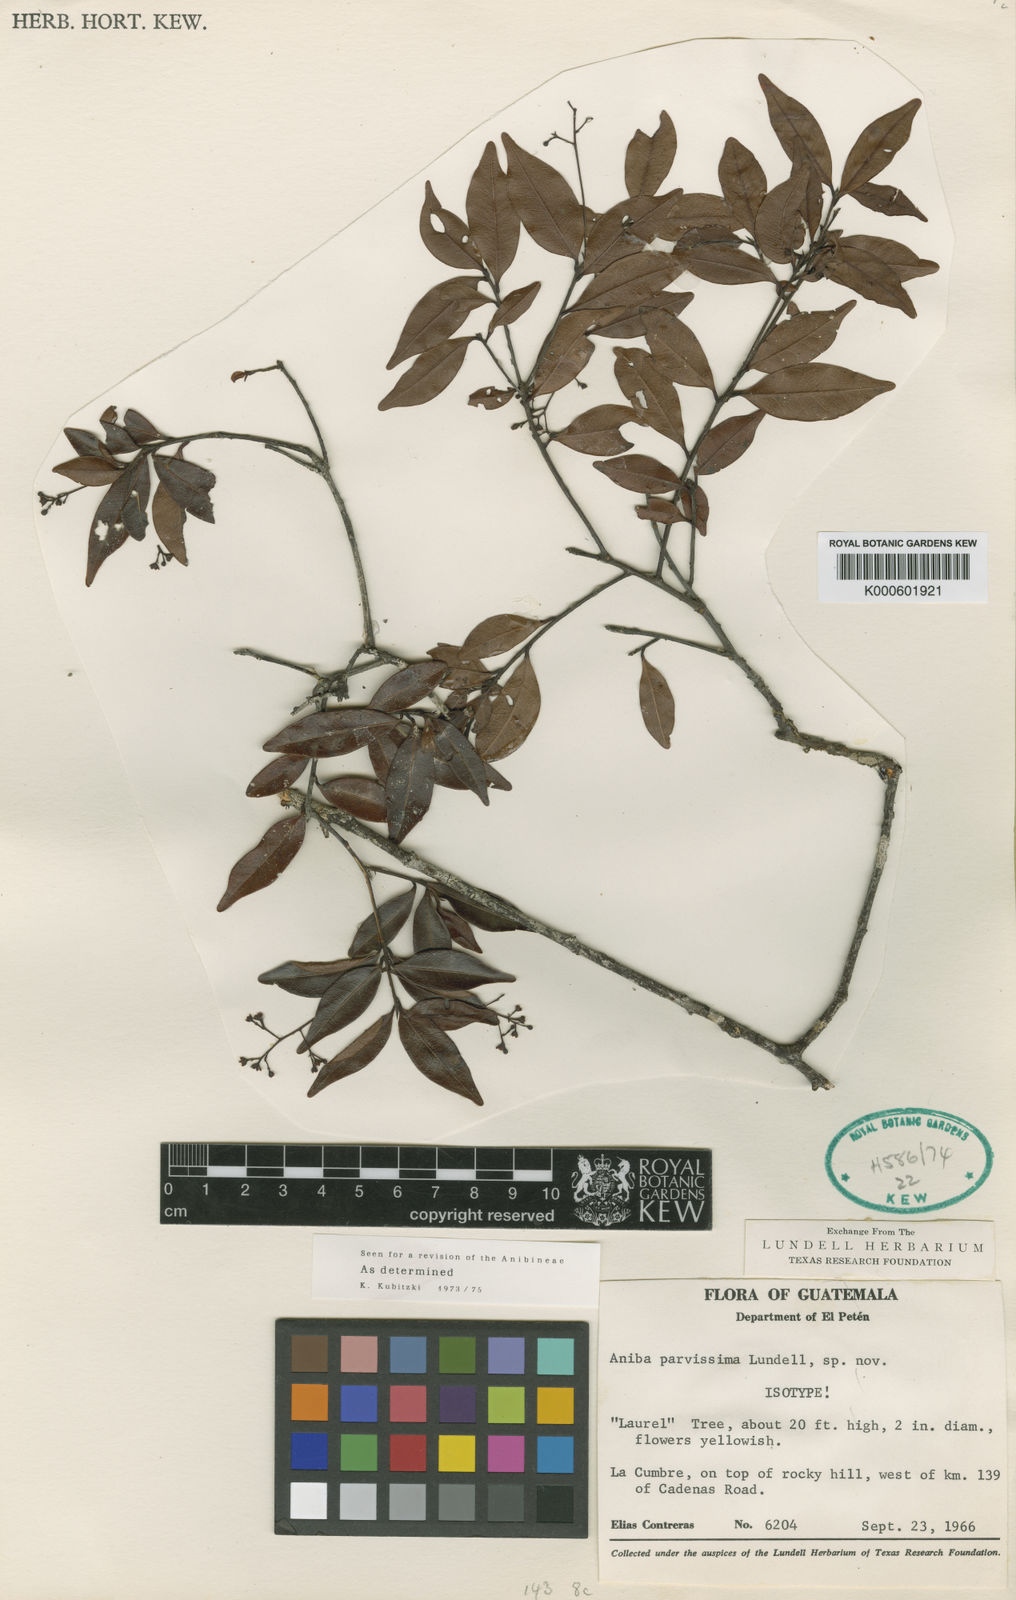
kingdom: Plantae
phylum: Tracheophyta
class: Magnoliopsida
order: Laurales
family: Lauraceae
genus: Damburneya
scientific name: Damburneya parvissima
